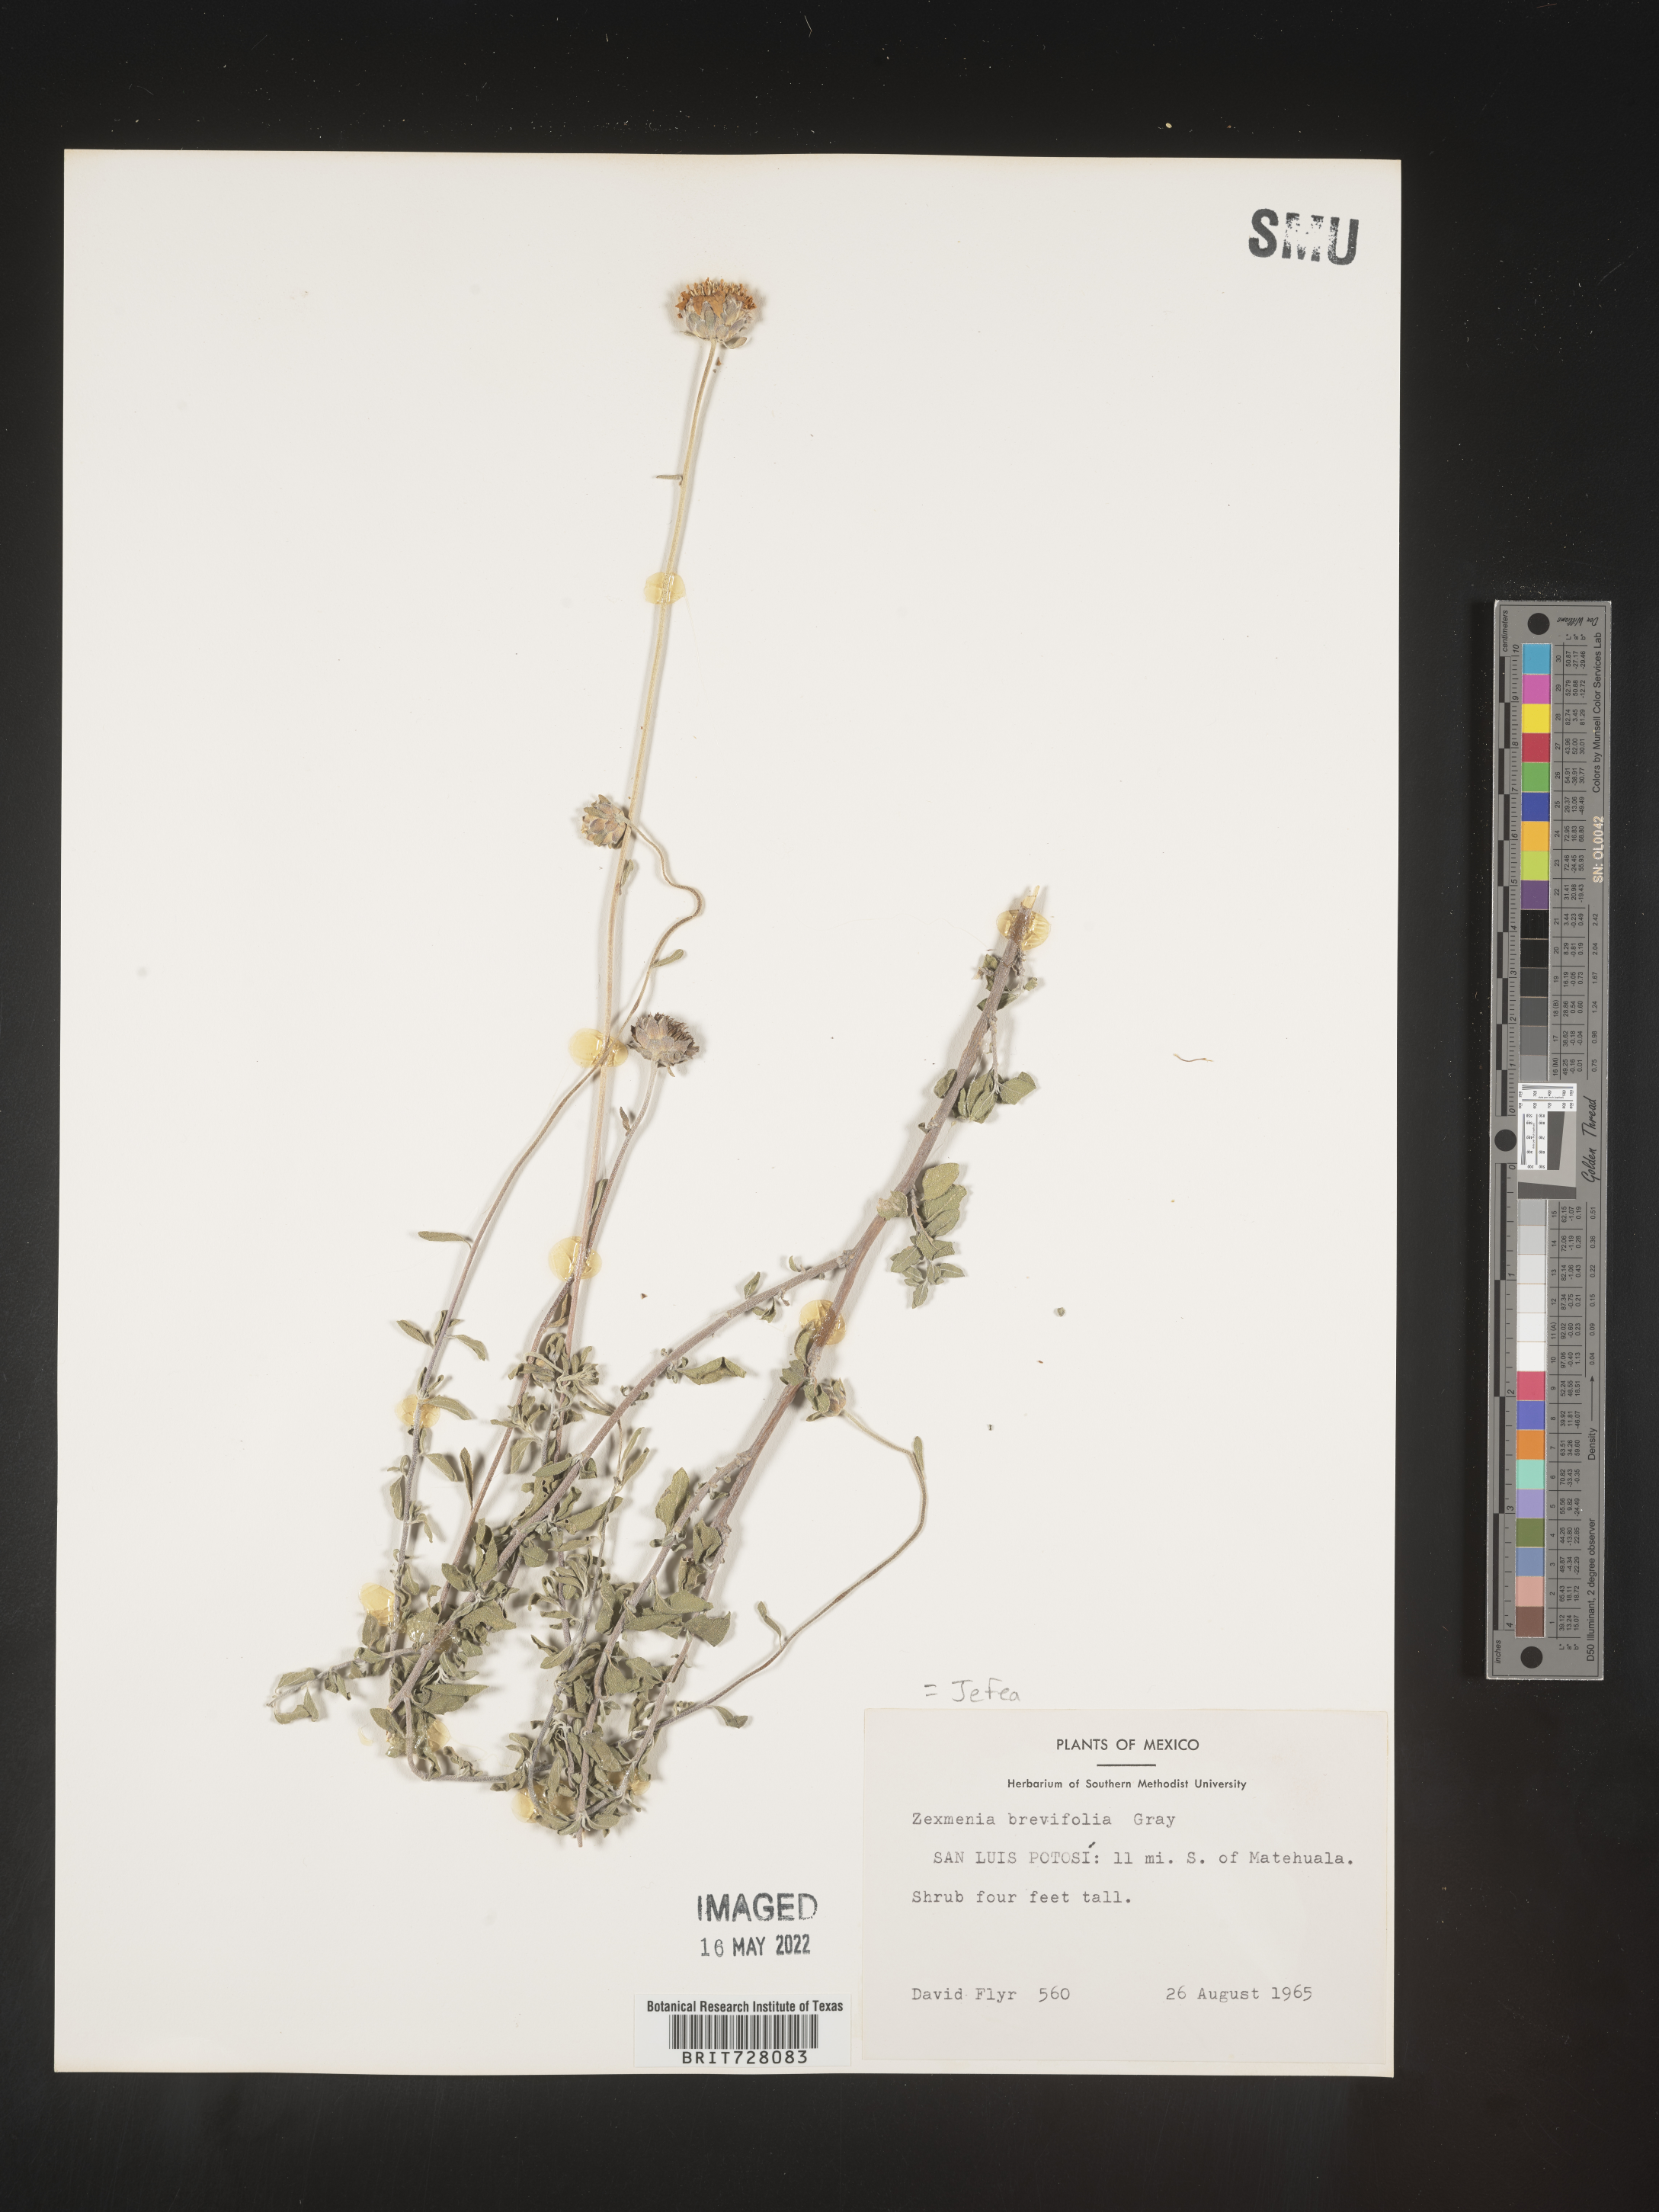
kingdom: Plantae
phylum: Tracheophyta
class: Magnoliopsida
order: Asterales
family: Asteraceae
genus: Jefea
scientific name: Jefea brevifolia
